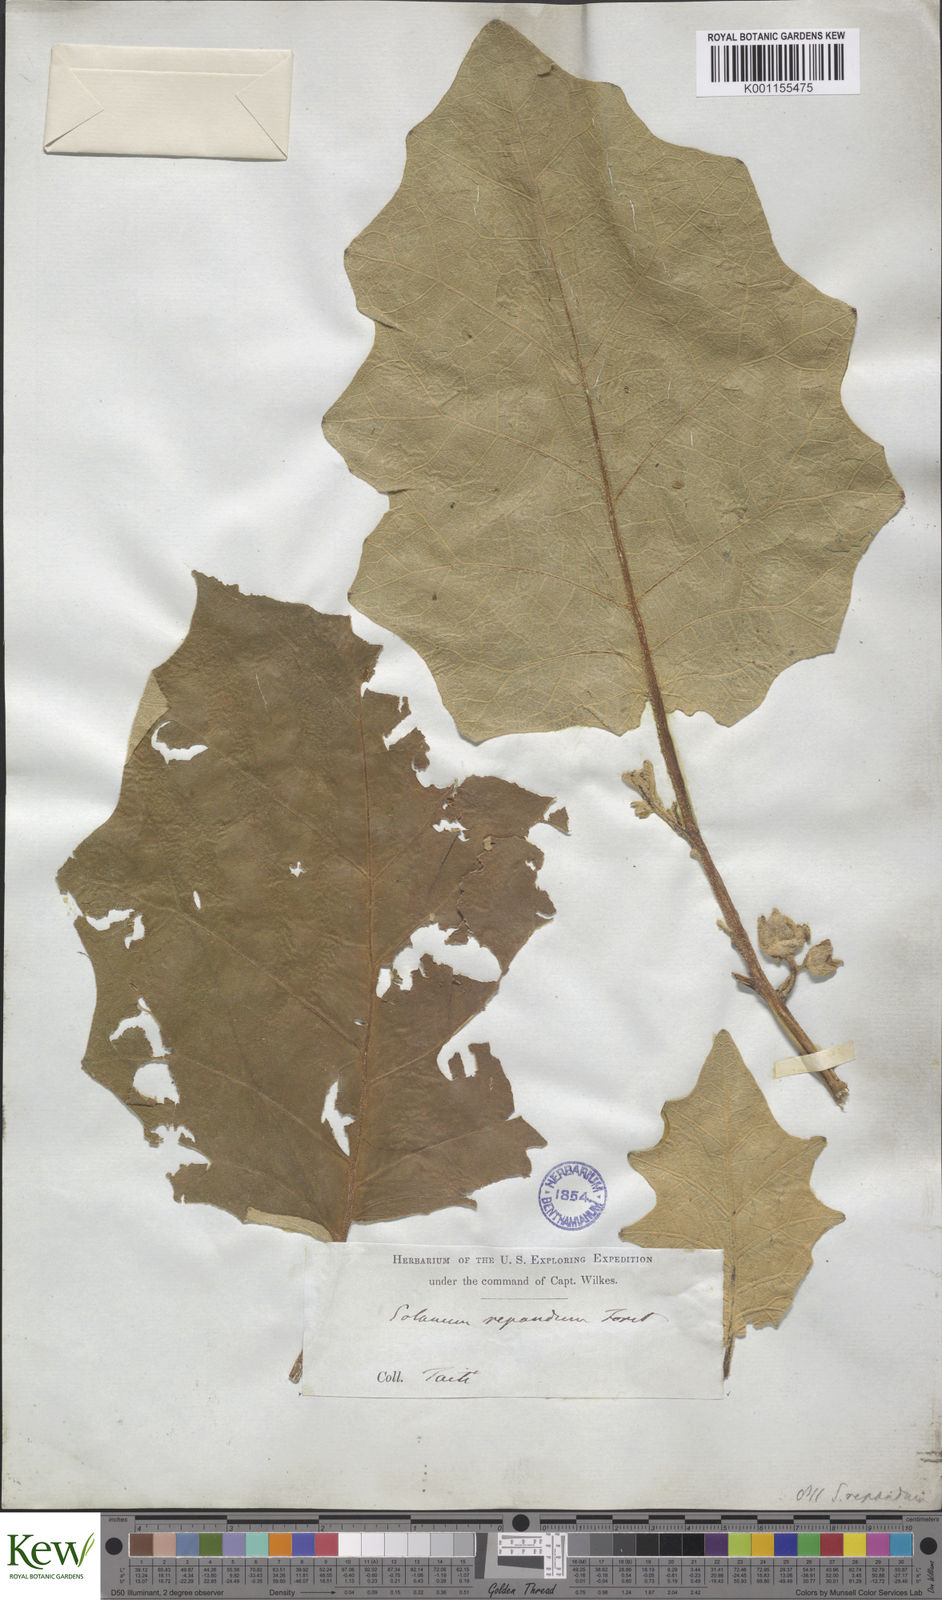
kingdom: Plantae
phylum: Tracheophyta
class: Magnoliopsida
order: Solanales
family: Solanaceae
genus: Solanum
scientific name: Solanum repandum
